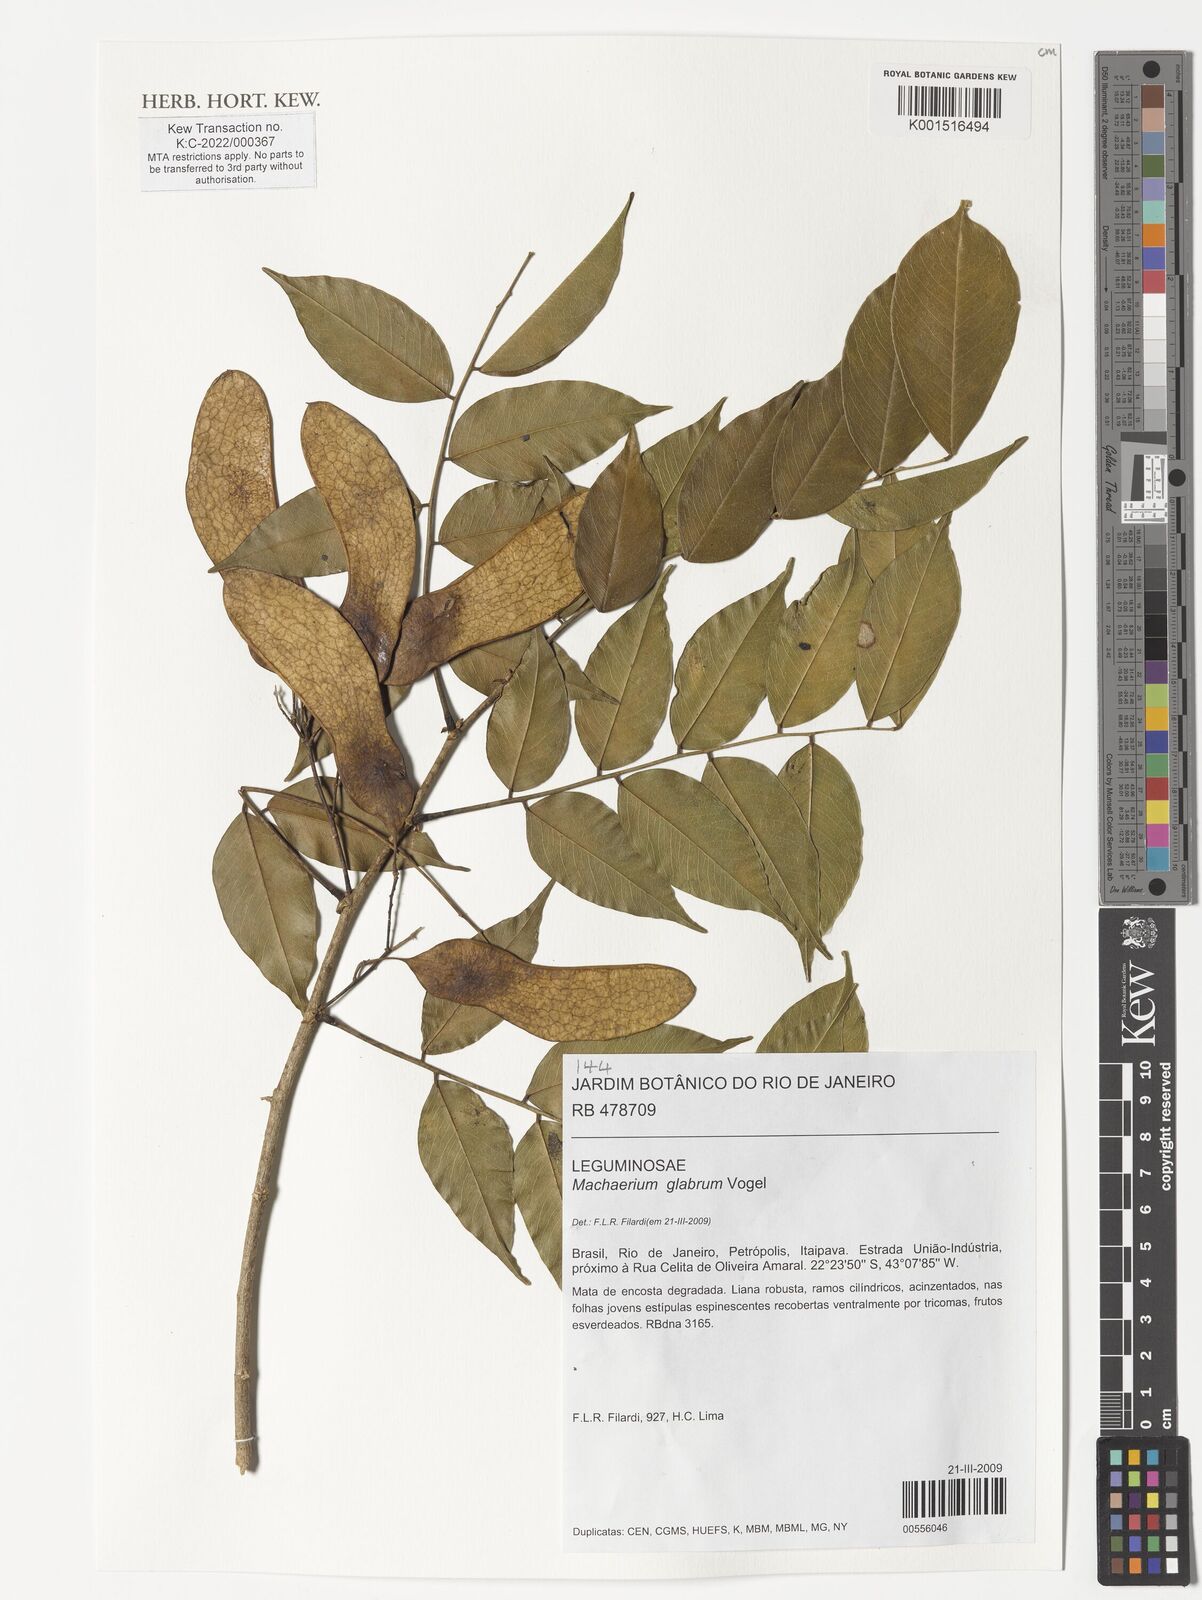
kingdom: Plantae
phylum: Tracheophyta
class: Magnoliopsida
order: Fabales
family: Fabaceae
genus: Machaerium
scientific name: Machaerium glabrum
